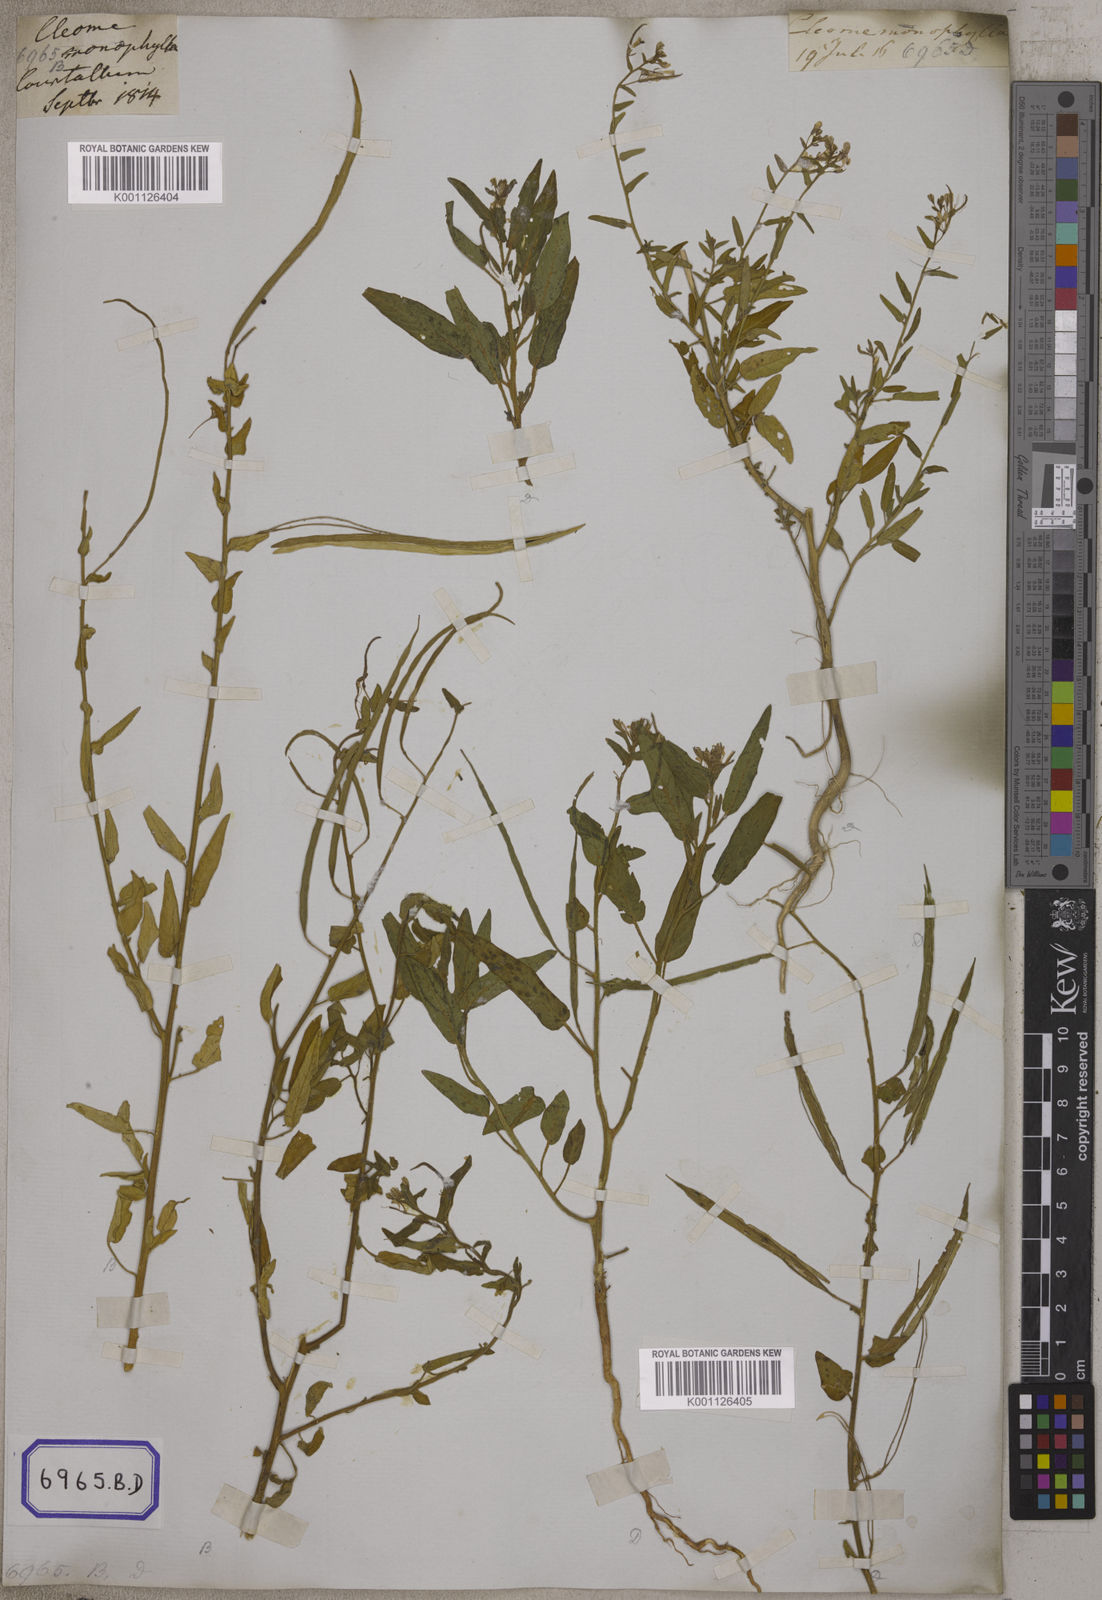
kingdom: Plantae
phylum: Tracheophyta
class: Magnoliopsida
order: Brassicales
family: Cleomaceae
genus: Cleome
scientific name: Cleome
